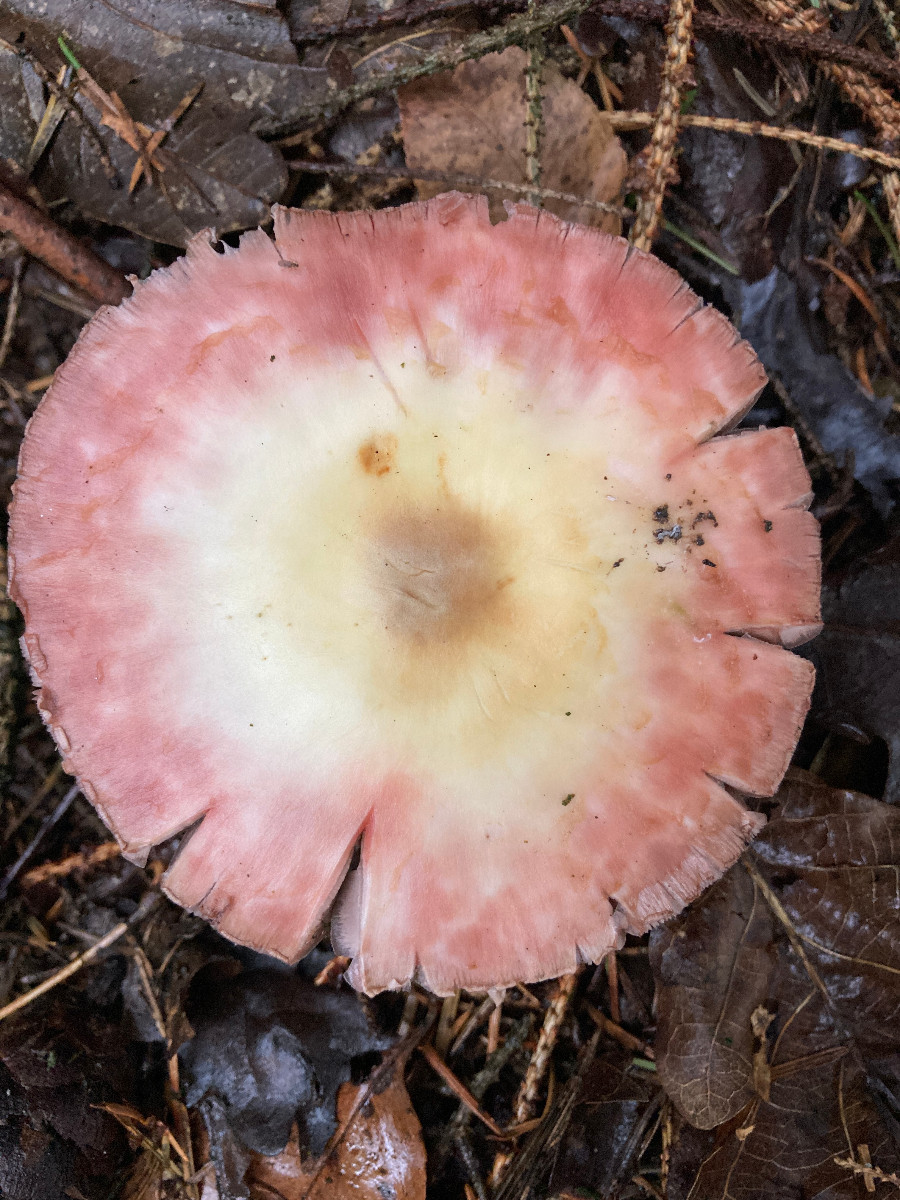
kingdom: Fungi
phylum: Basidiomycota
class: Agaricomycetes
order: Agaricales
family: Agaricaceae
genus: Agaricus
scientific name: Agaricus
